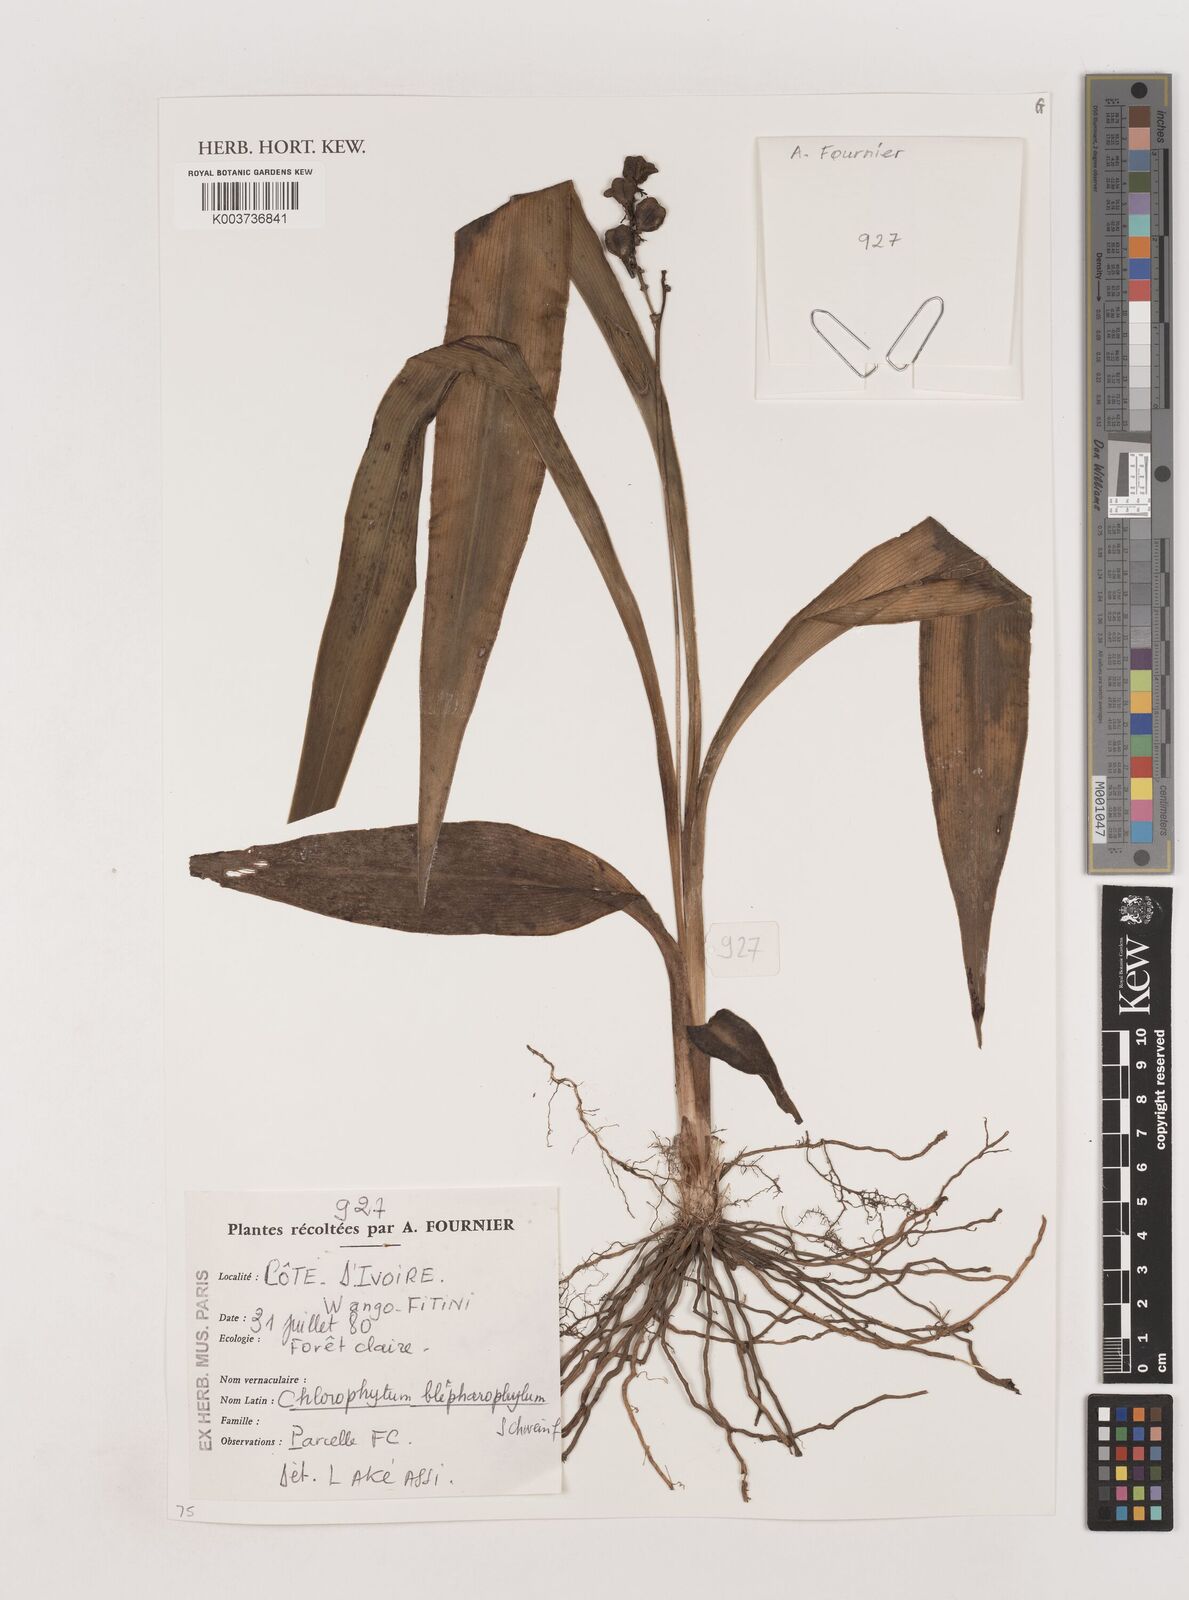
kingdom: Plantae
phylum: Tracheophyta
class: Liliopsida
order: Asparagales
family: Asparagaceae
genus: Chlorophytum
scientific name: Chlorophytum blepharophyllum
